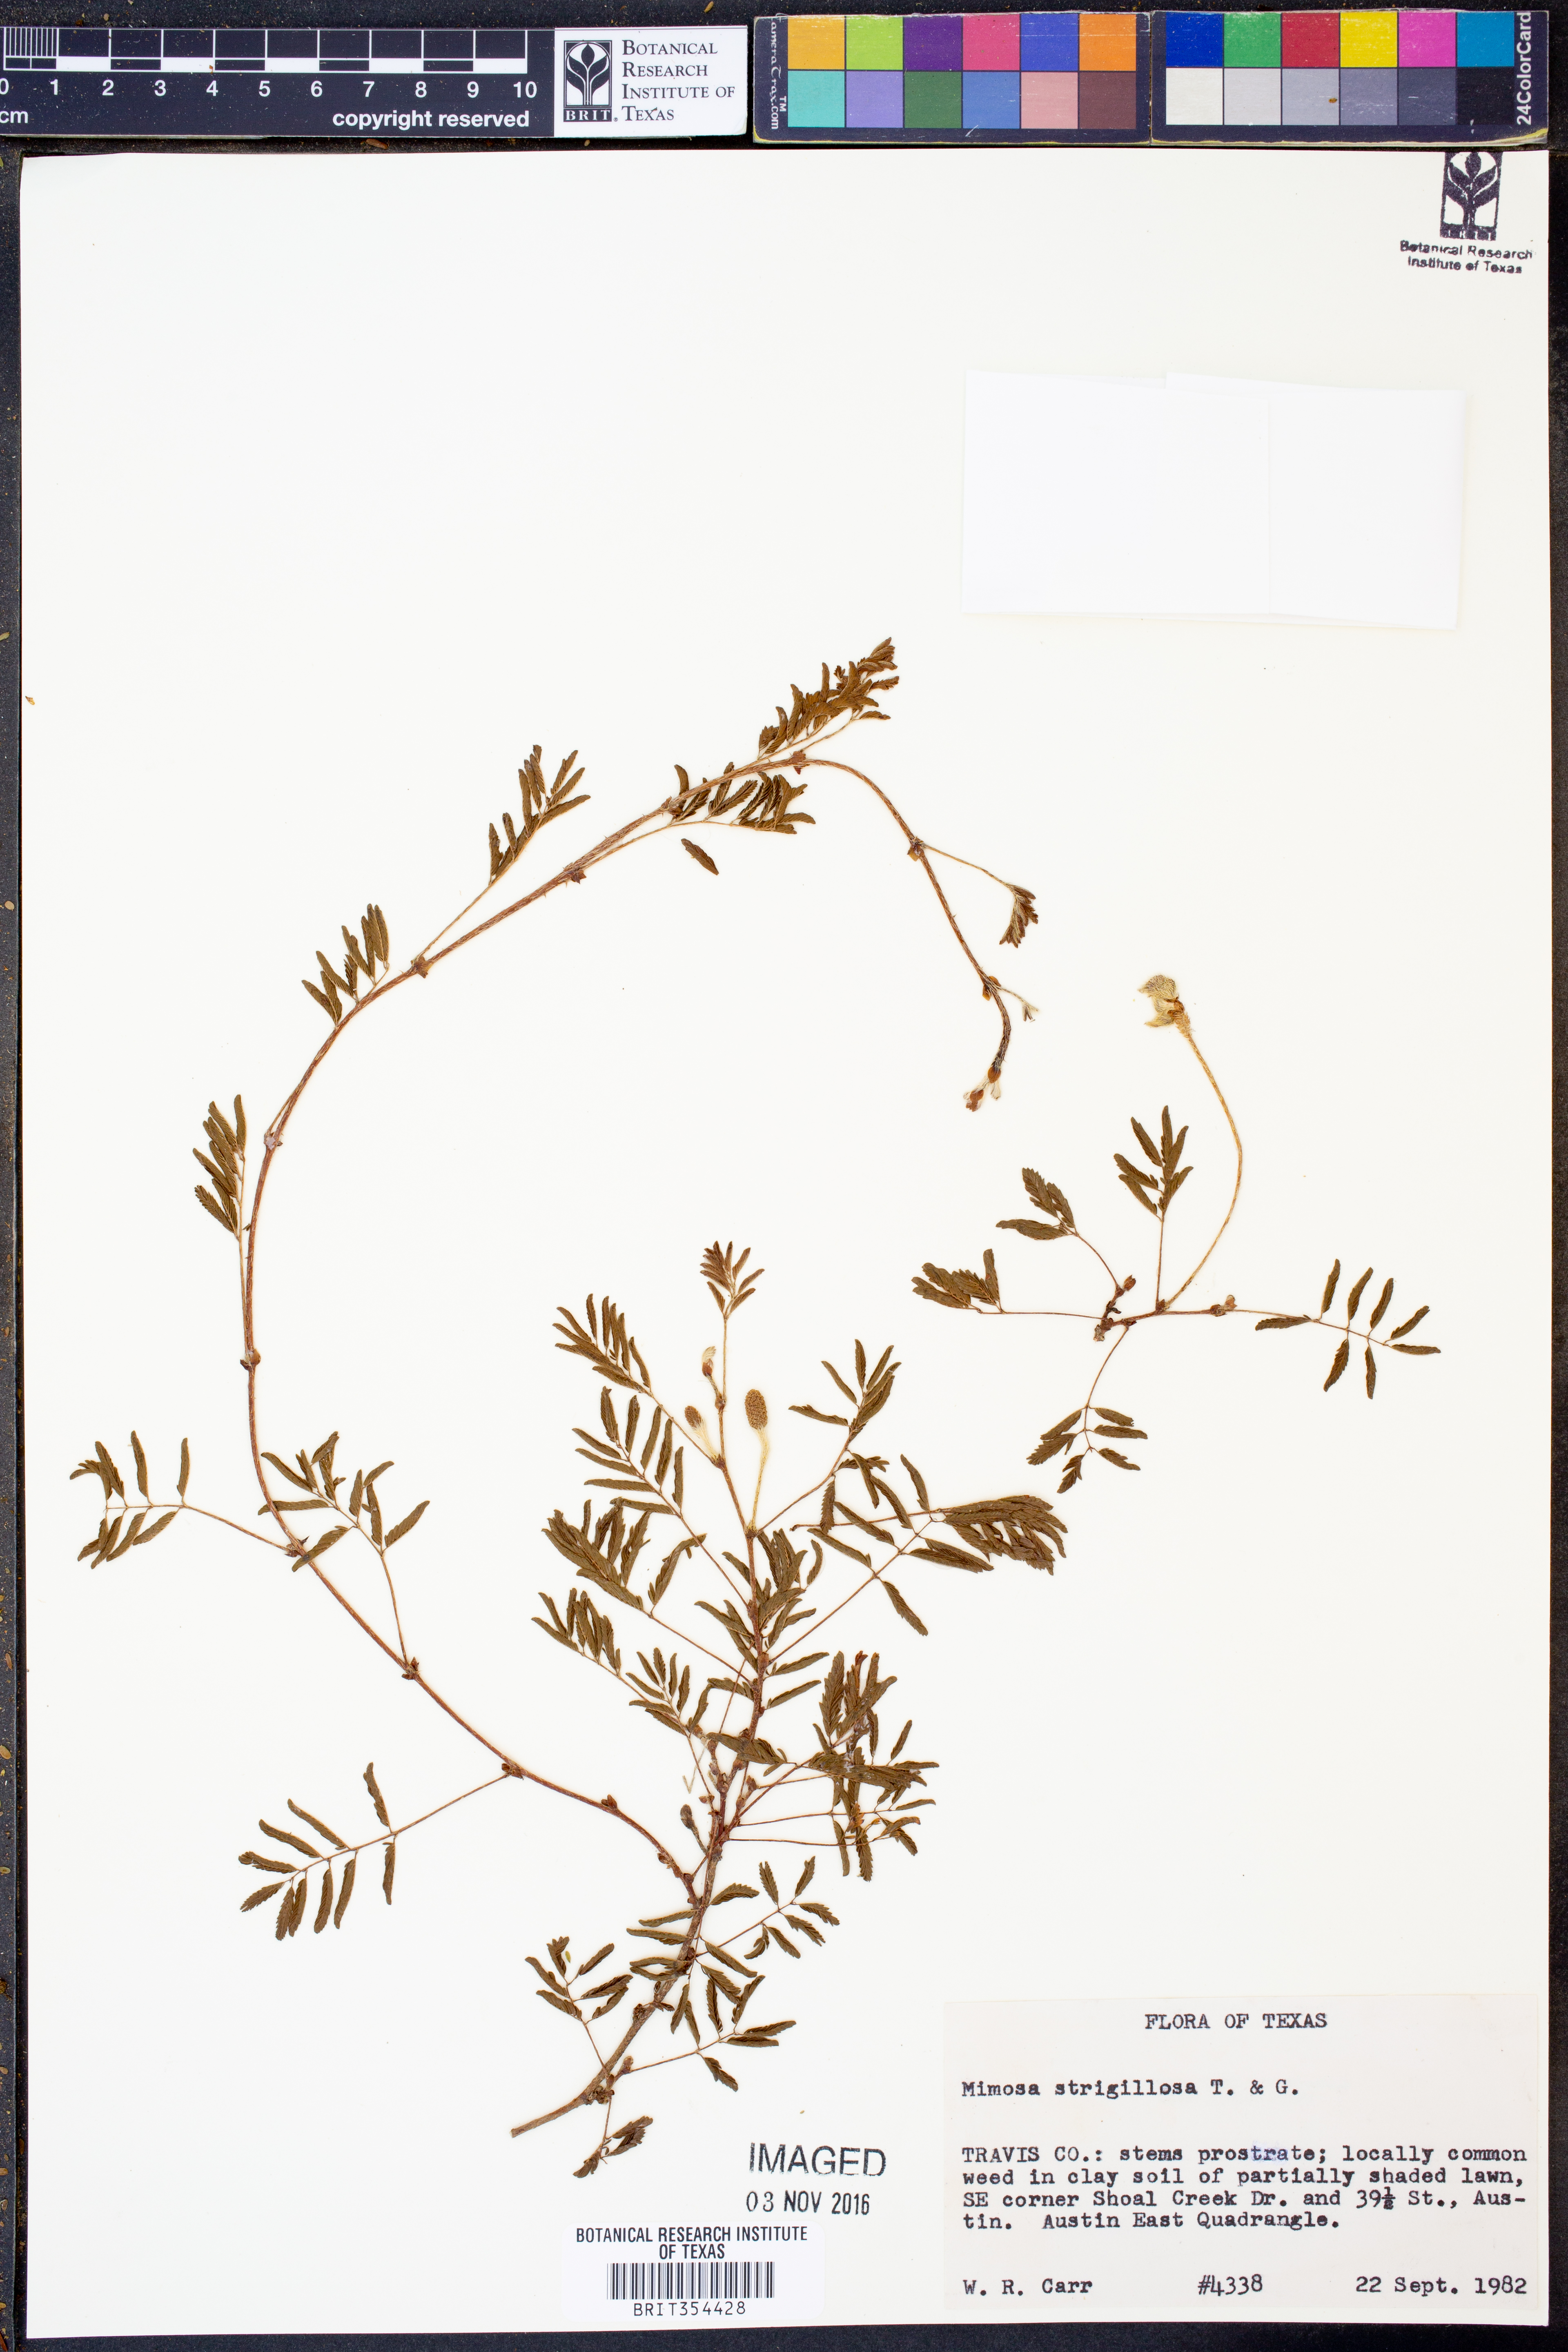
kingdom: Plantae
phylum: Tracheophyta
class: Magnoliopsida
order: Fabales
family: Fabaceae
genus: Mimosa
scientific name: Mimosa strigillosa
